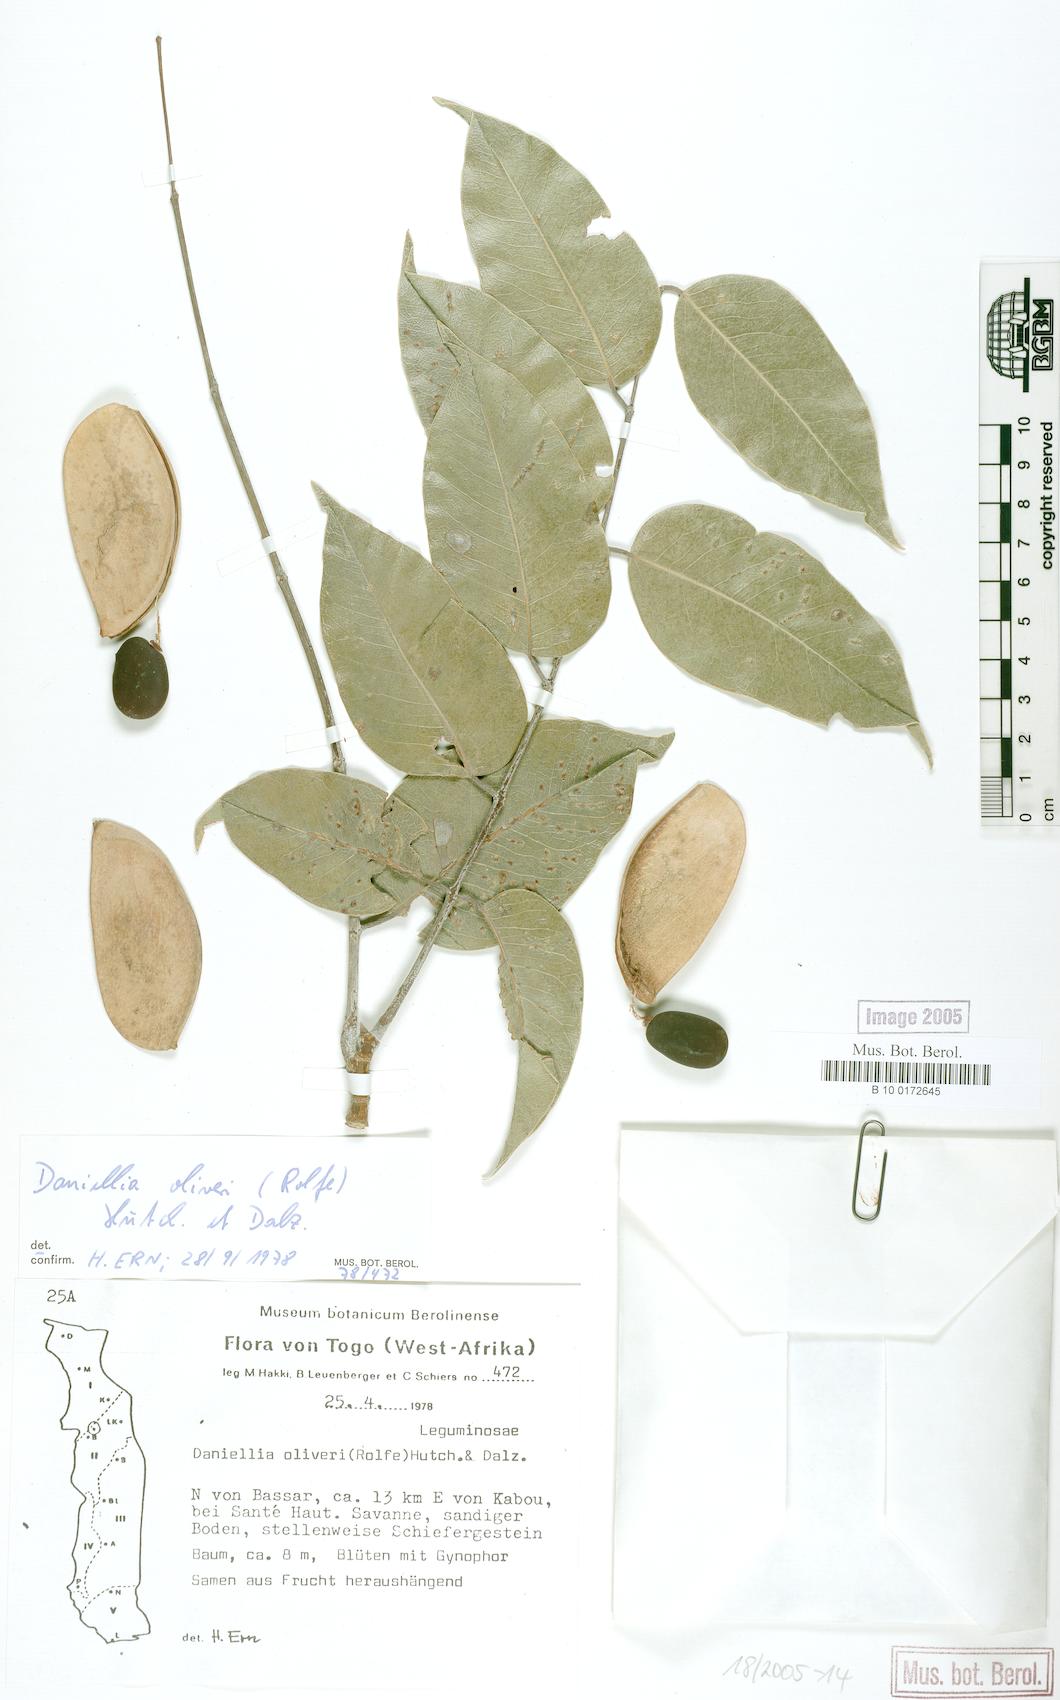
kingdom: Plantae
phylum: Tracheophyta
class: Magnoliopsida
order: Fabales
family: Fabaceae
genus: Daniellia
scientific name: Daniellia oliveri
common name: African copaiba balsamtree
